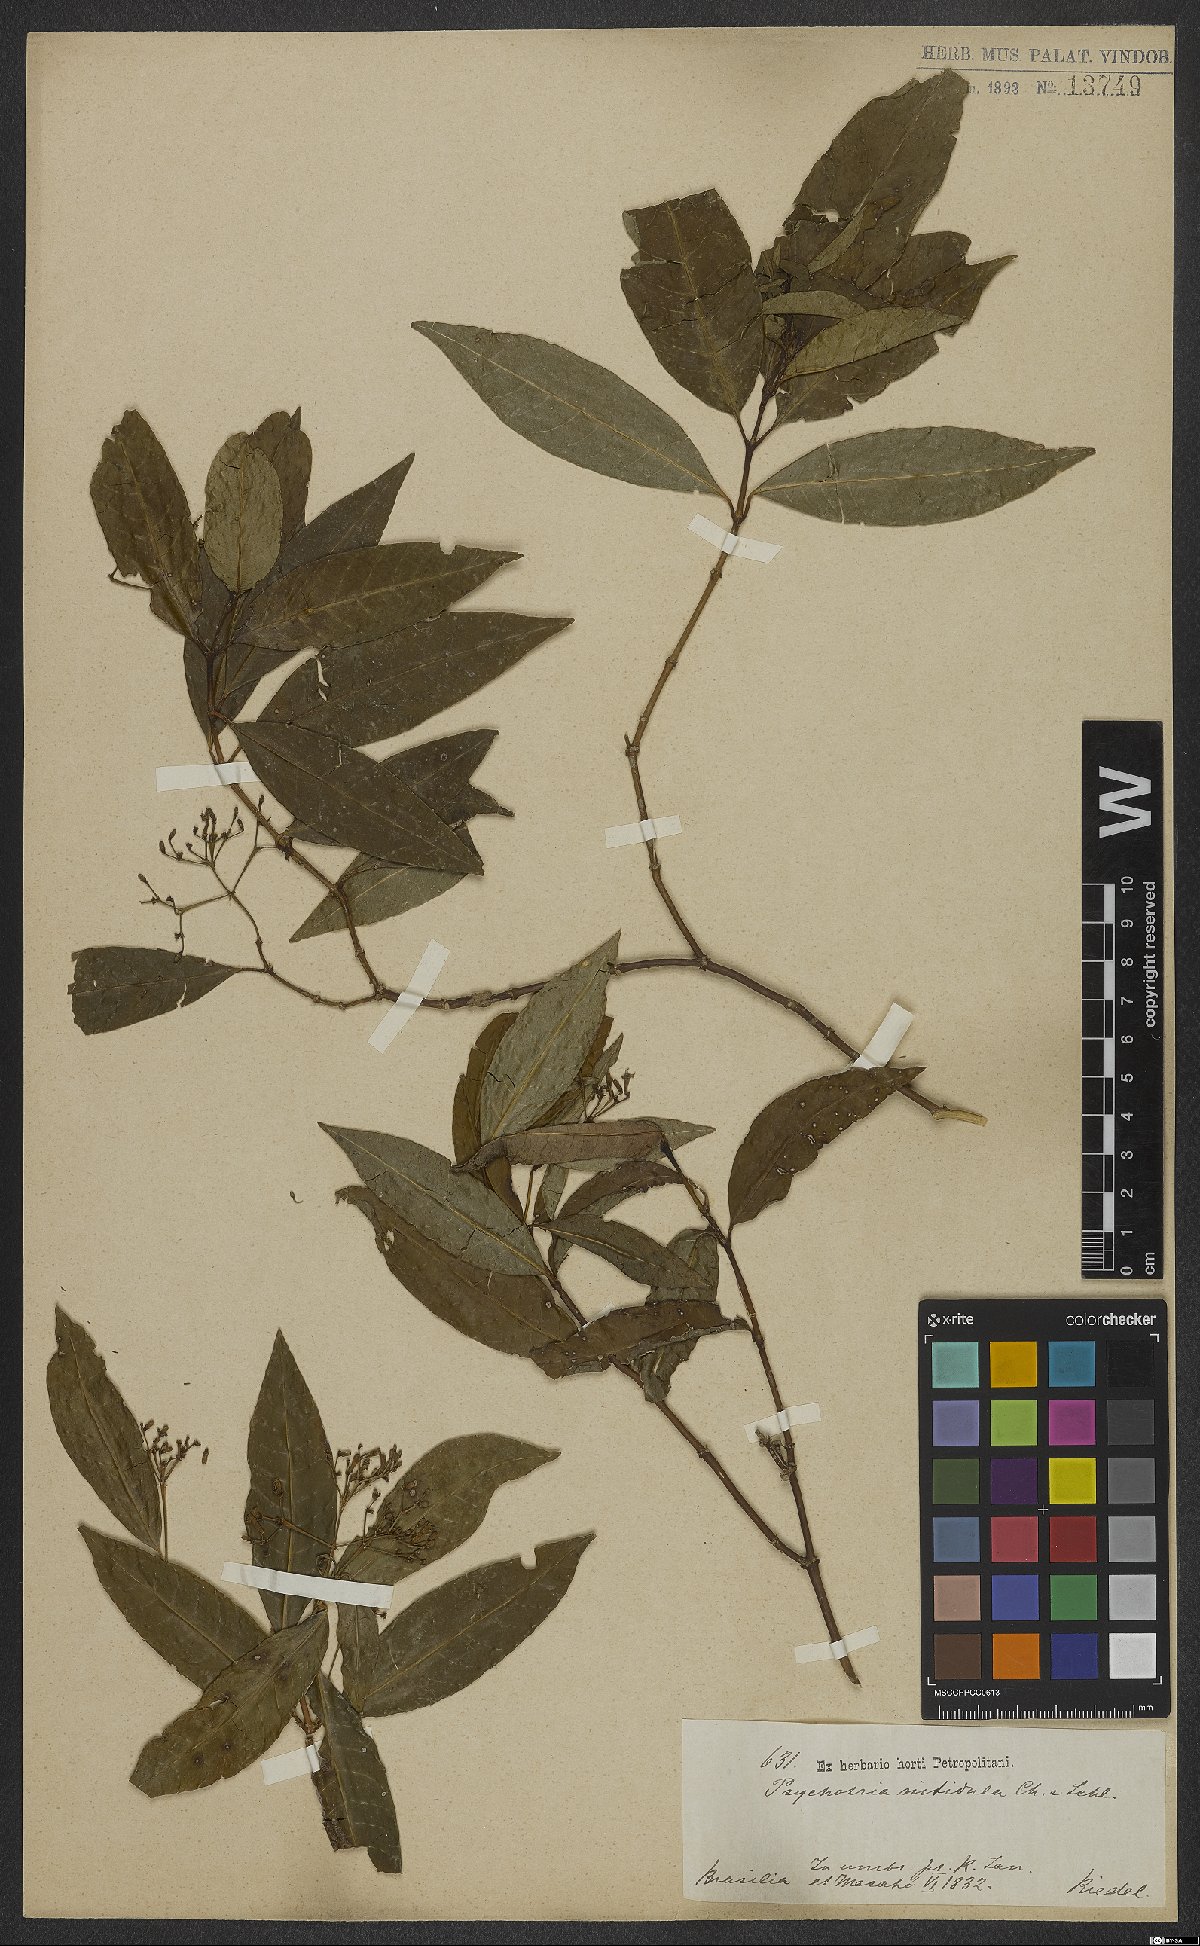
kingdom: Plantae
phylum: Tracheophyta
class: Magnoliopsida
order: Gentianales
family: Rubiaceae
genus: Psychotria
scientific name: Psychotria leiocarpa
